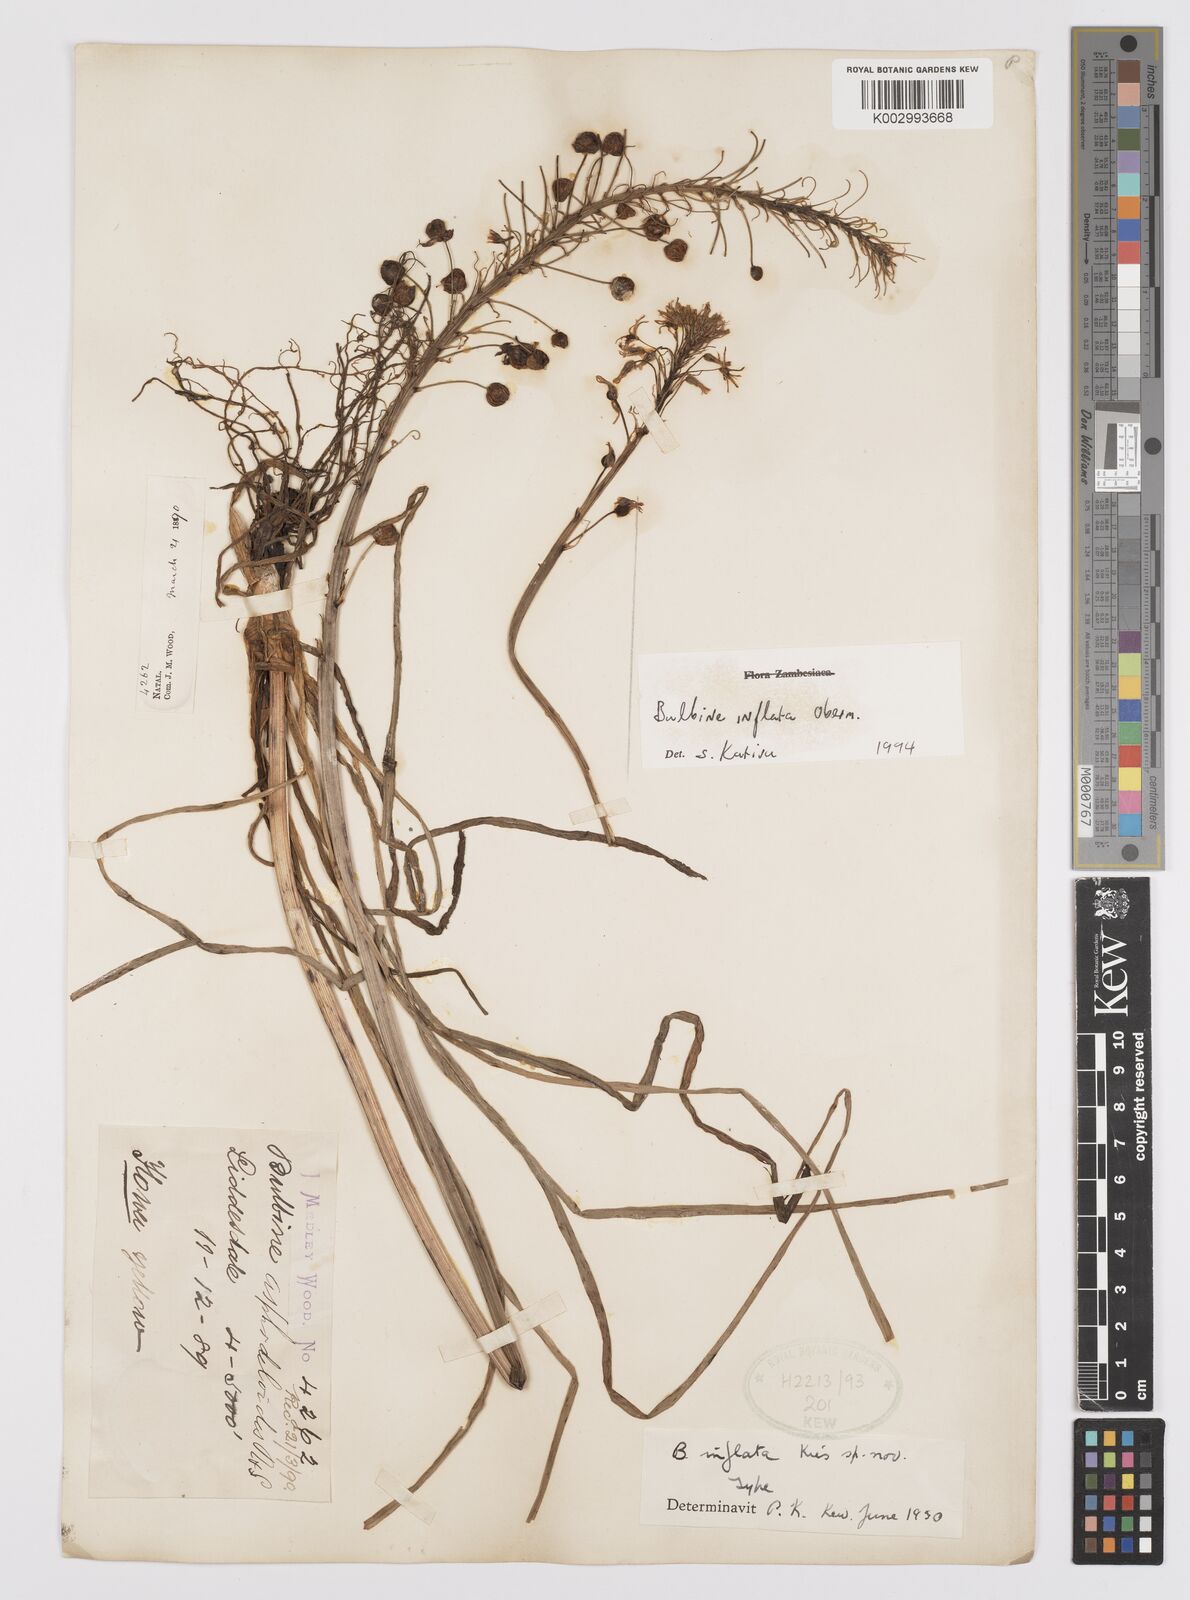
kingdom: Plantae
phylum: Tracheophyta
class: Liliopsida
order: Asparagales
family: Asphodelaceae
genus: Bulbine
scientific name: Bulbine inflata
